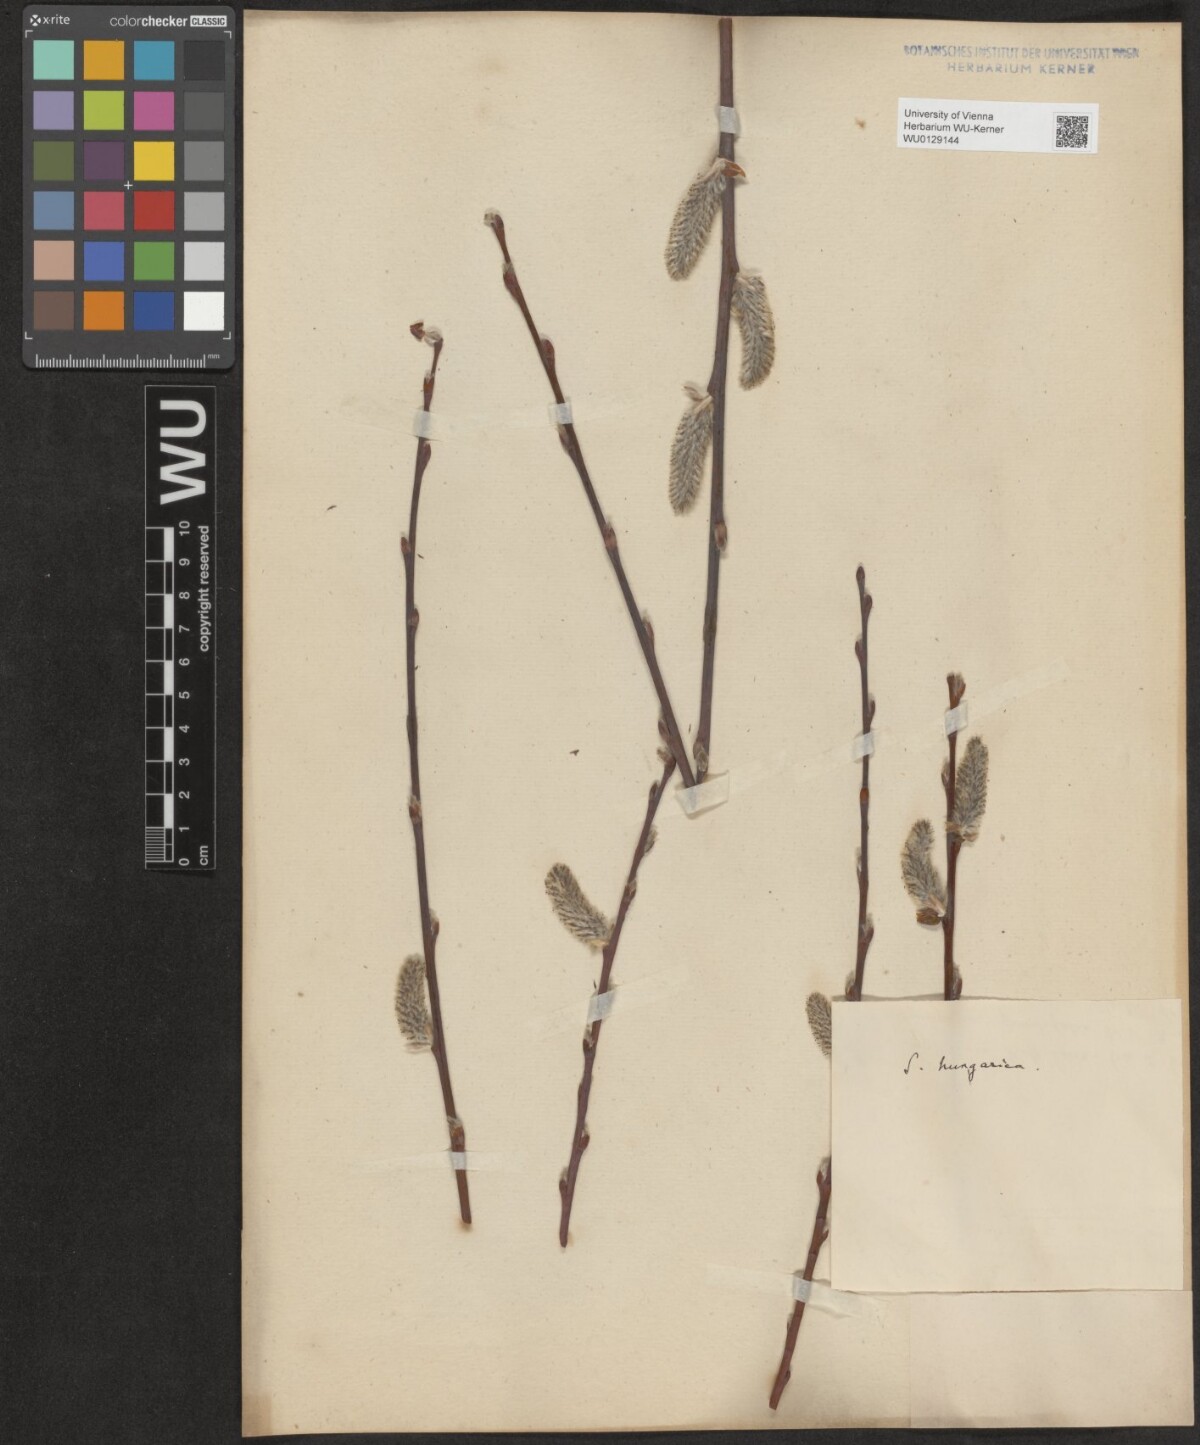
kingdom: Plantae
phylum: Tracheophyta
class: Magnoliopsida
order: Malpighiales
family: Salicaceae
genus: Salix
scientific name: Salix erdingeri
